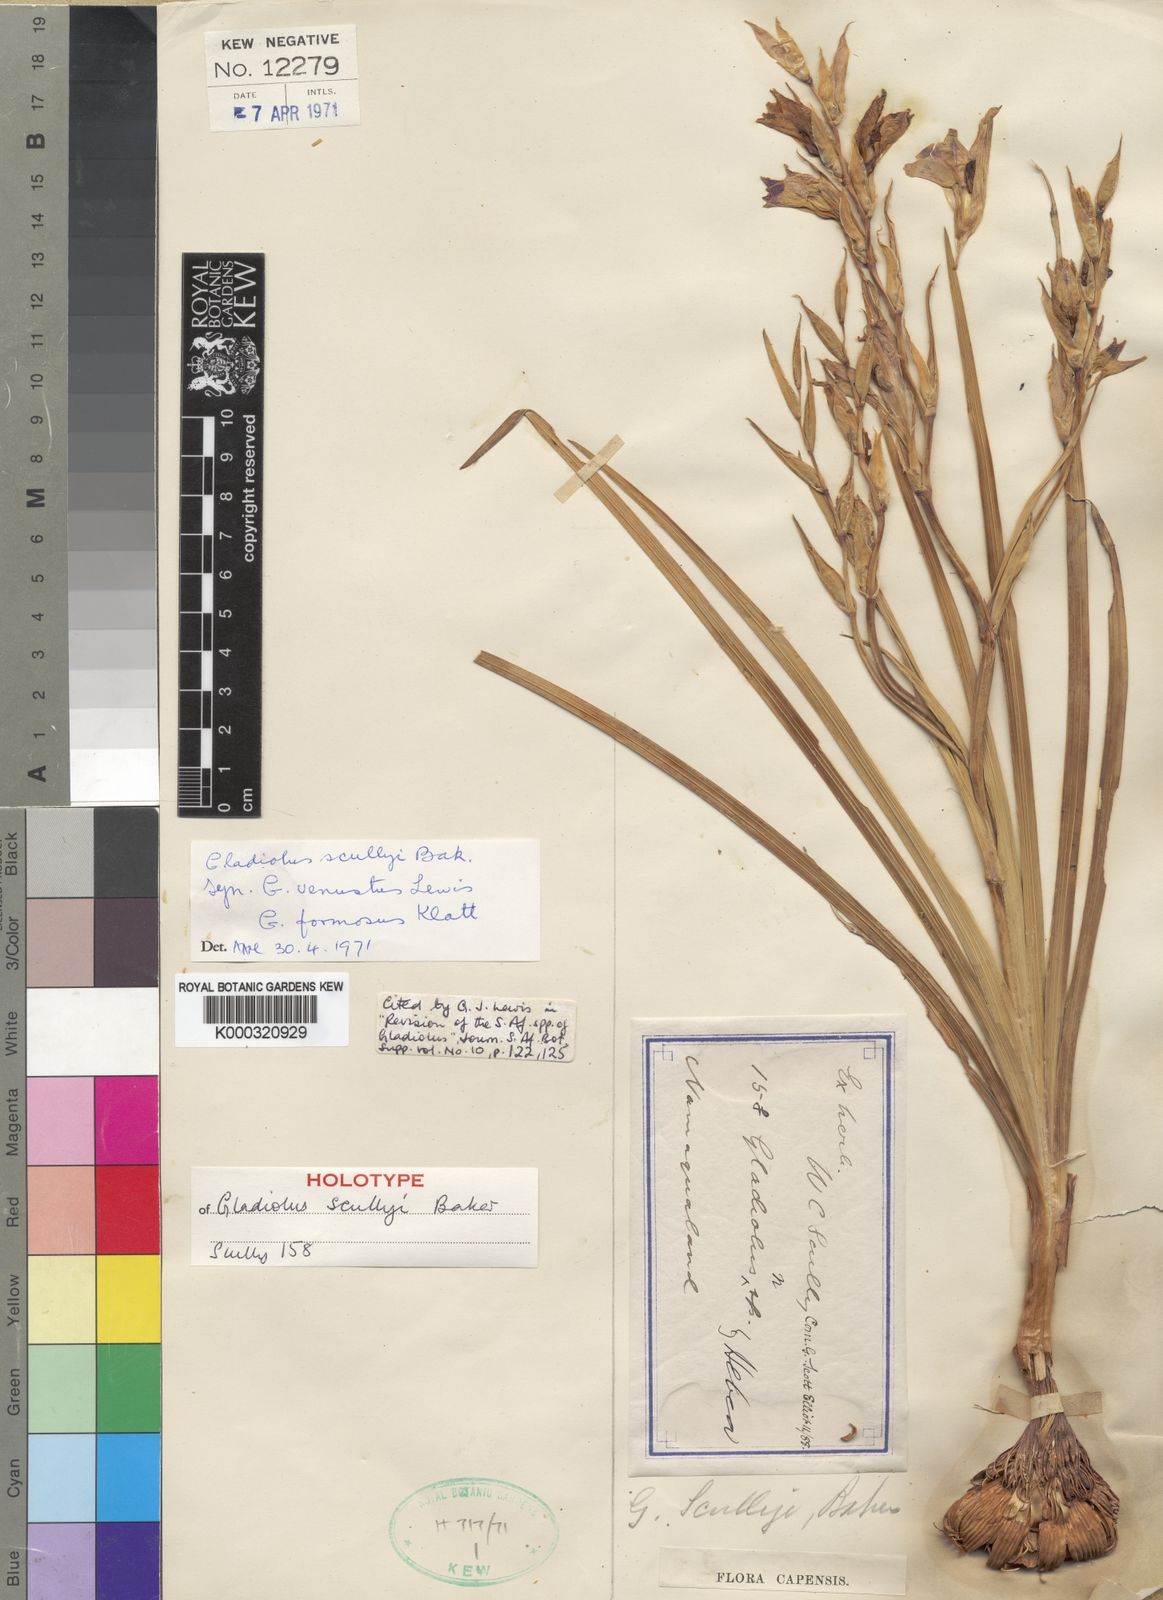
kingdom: Plantae
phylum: Tracheophyta
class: Liliopsida
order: Asparagales
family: Iridaceae
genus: Gladiolus
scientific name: Gladiolus scullyi
